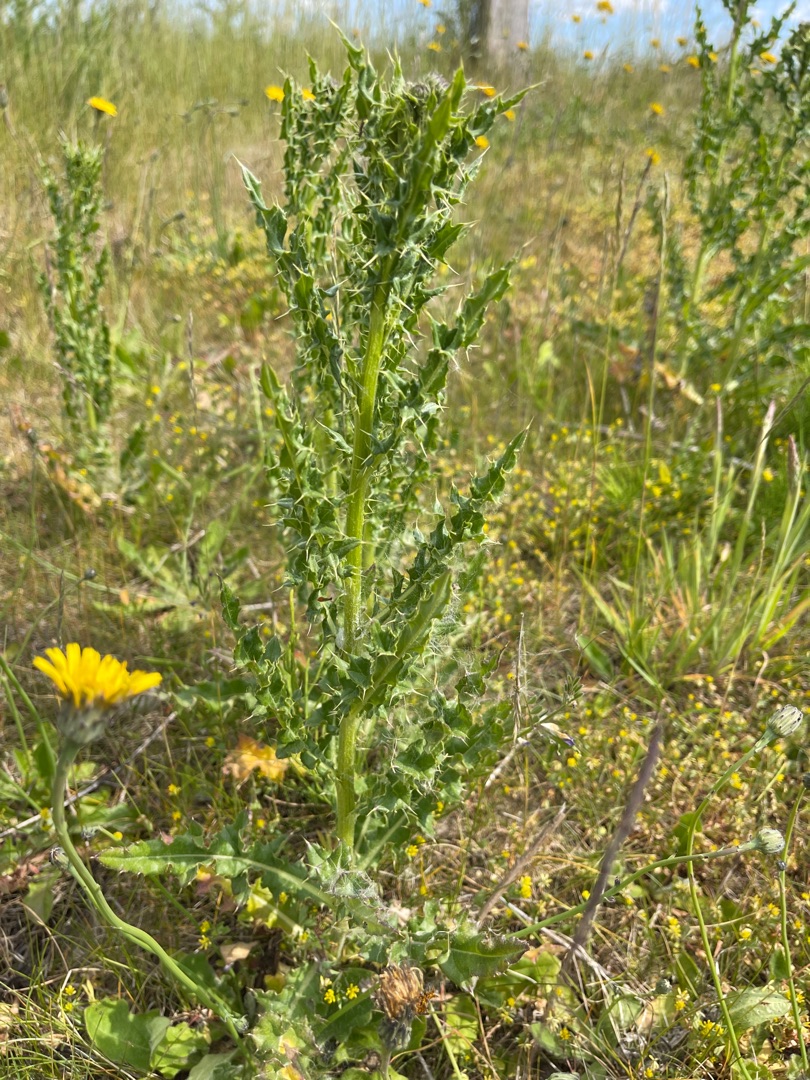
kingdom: Plantae
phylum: Tracheophyta
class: Magnoliopsida
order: Asterales
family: Asteraceae
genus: Cirsium
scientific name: Cirsium arvense
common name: Ager-tidsel
